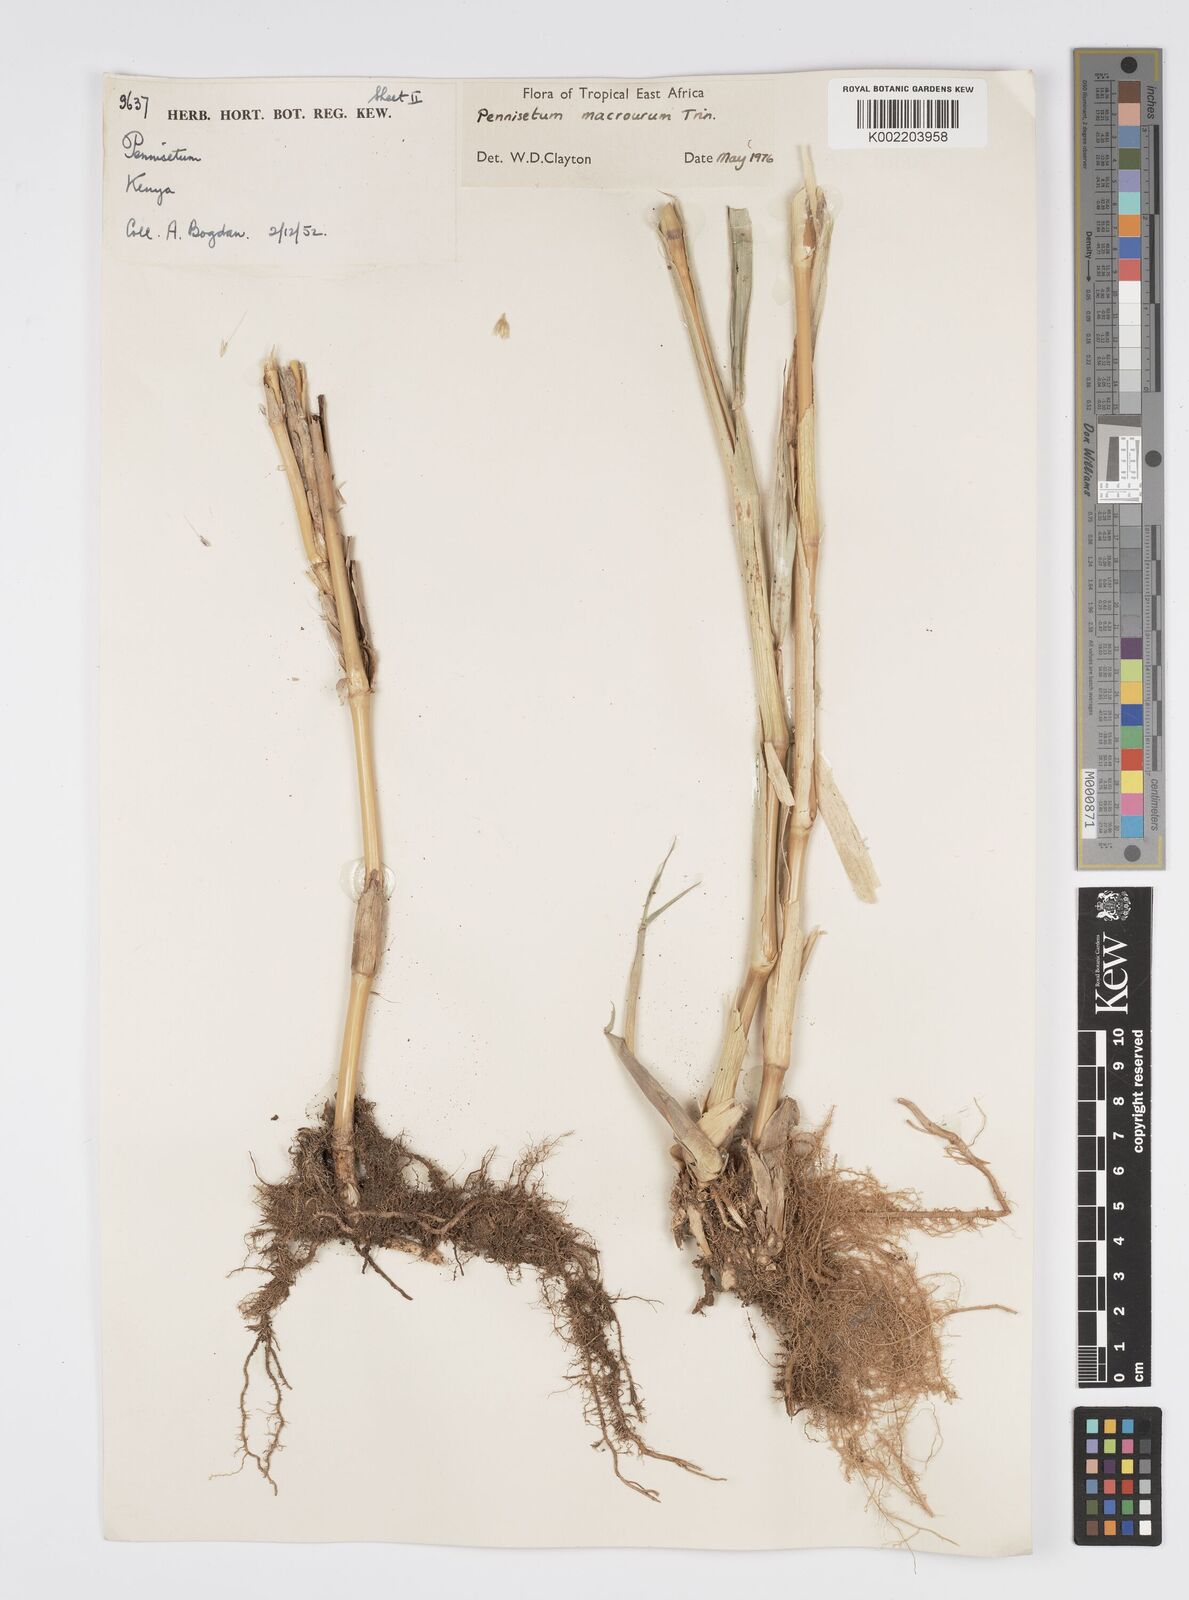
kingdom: Plantae
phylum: Tracheophyta
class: Liliopsida
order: Poales
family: Poaceae
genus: Cenchrus
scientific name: Cenchrus caudatus
